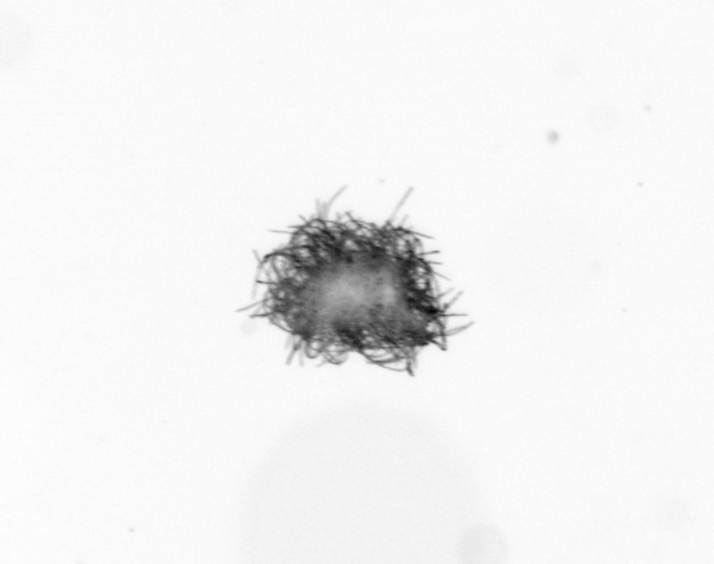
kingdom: Bacteria
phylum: Cyanobacteria
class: Cyanobacteriia
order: Cyanobacteriales
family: Microcoleaceae
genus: Trichodesmium
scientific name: Trichodesmium
